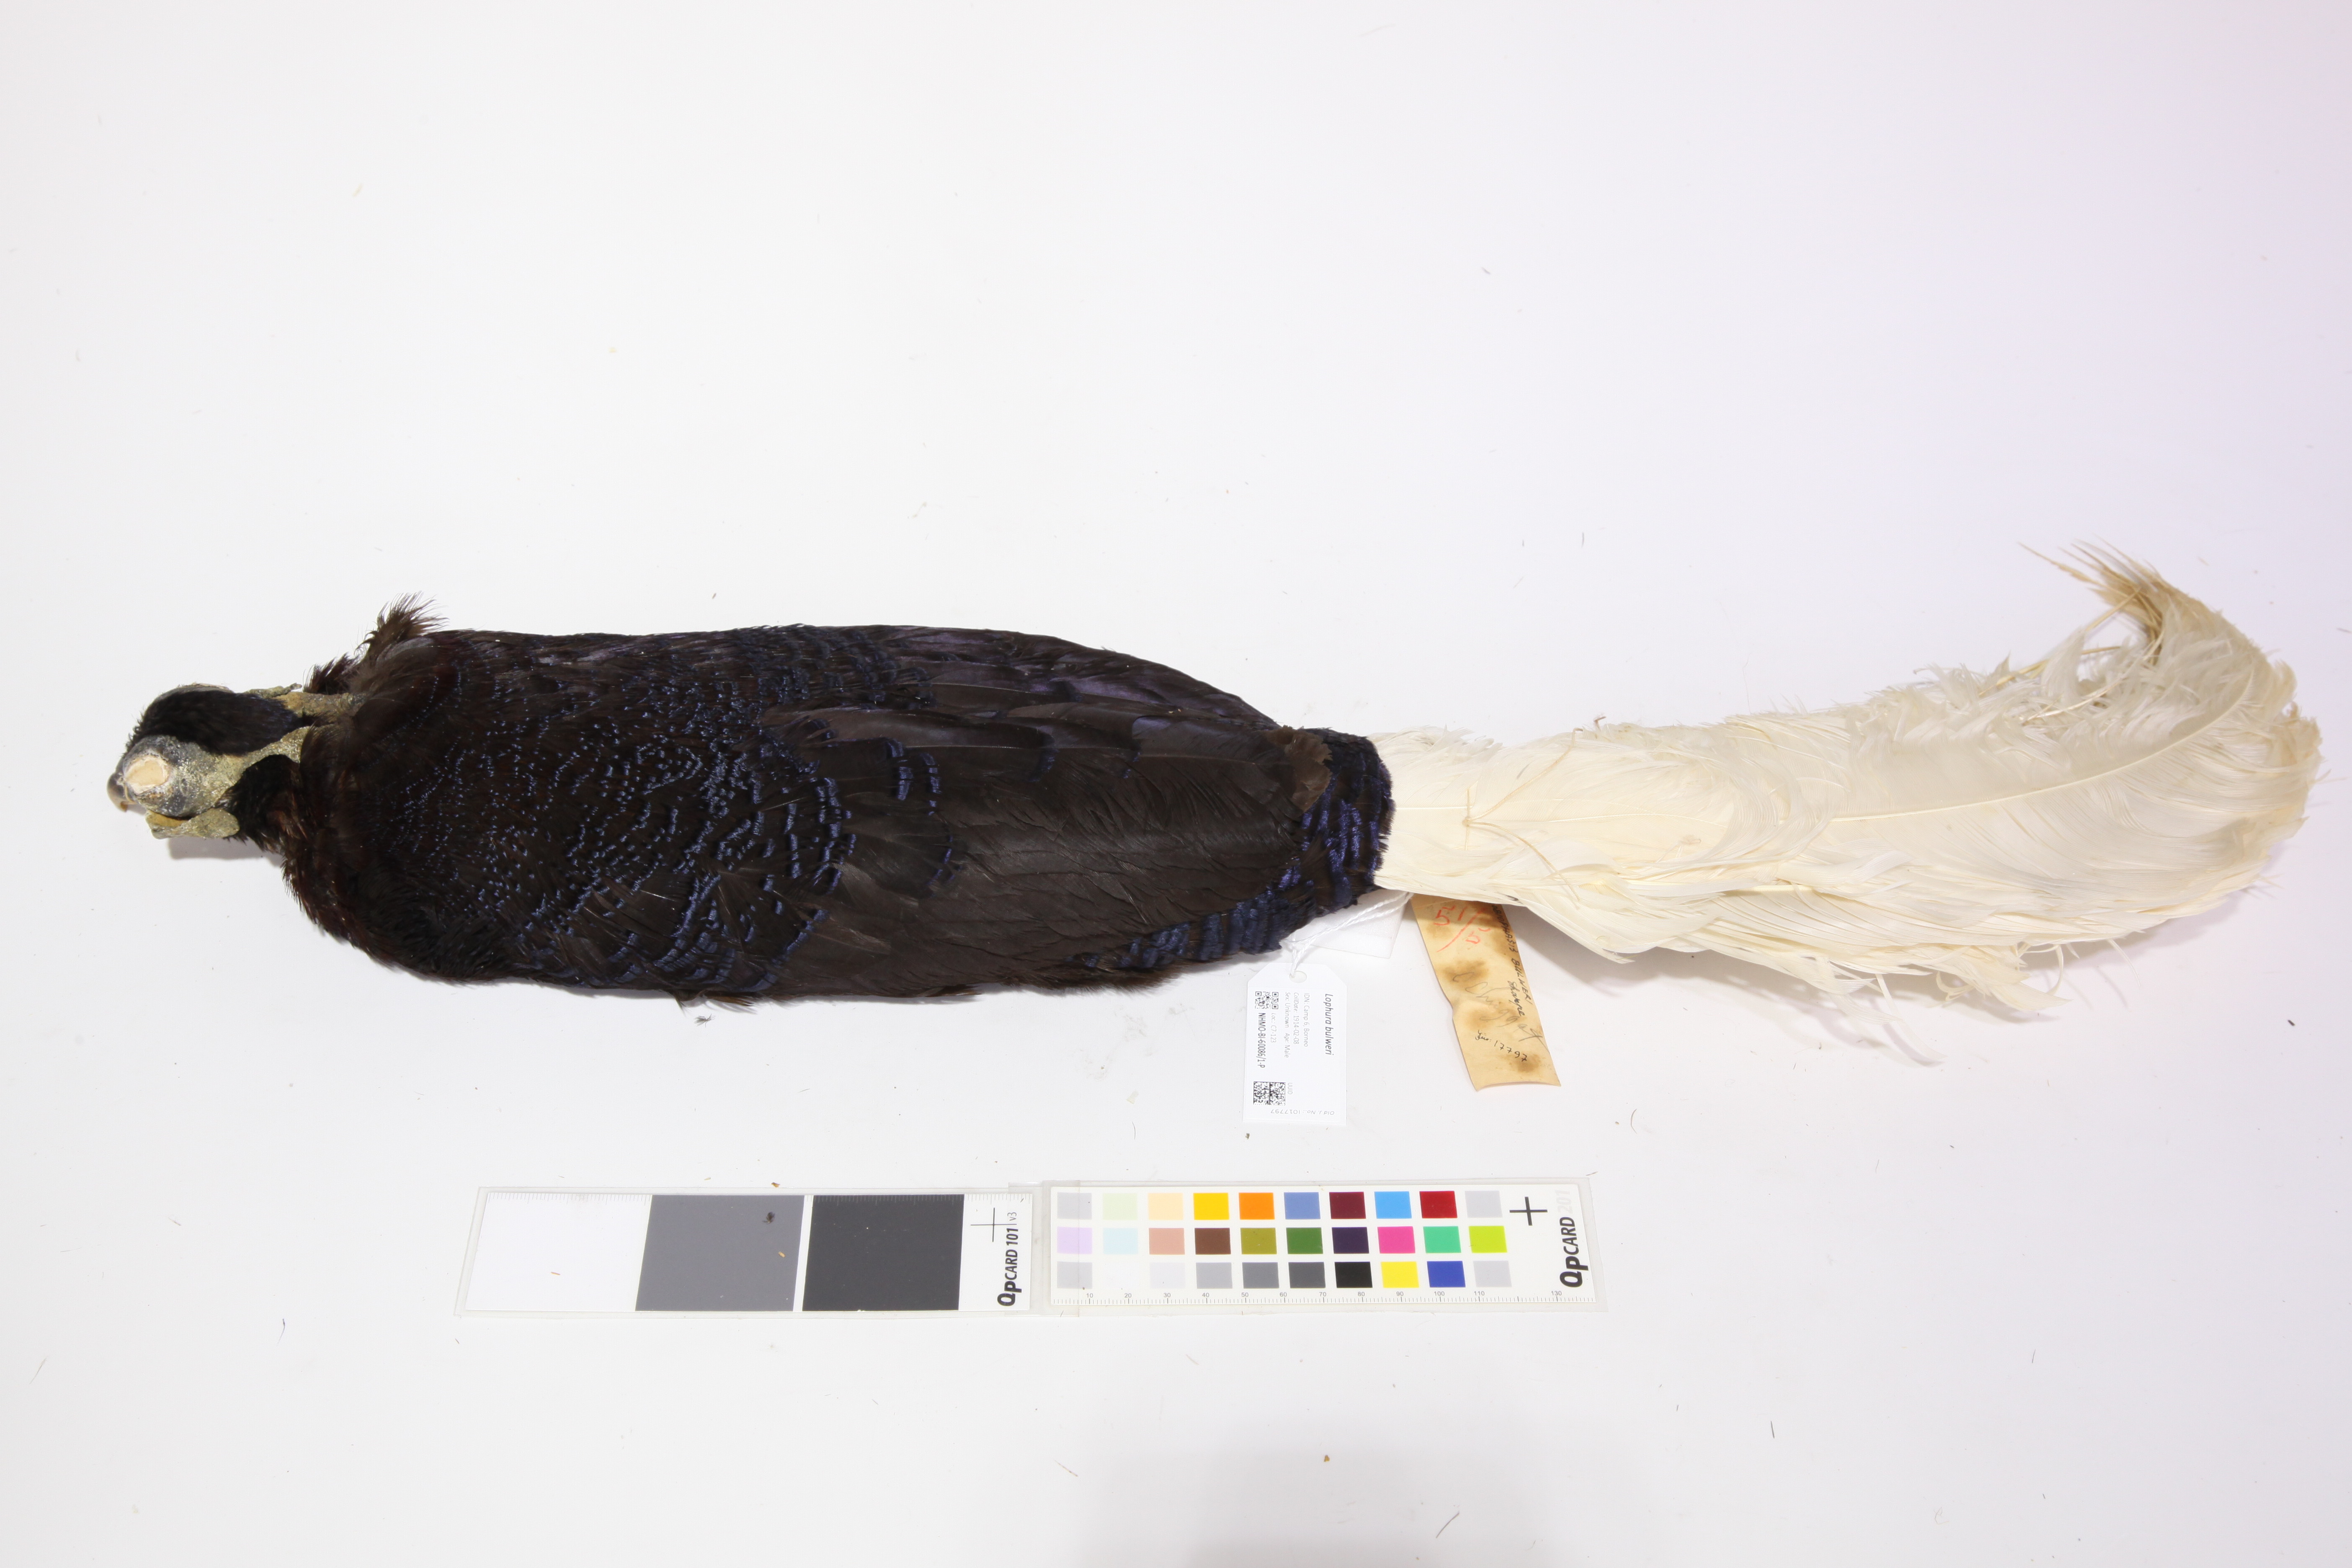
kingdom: Animalia
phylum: Chordata
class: Aves
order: Galliformes
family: Phasianidae
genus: Lophura
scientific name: Lophura bulweri
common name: Bulwer's pheasant
